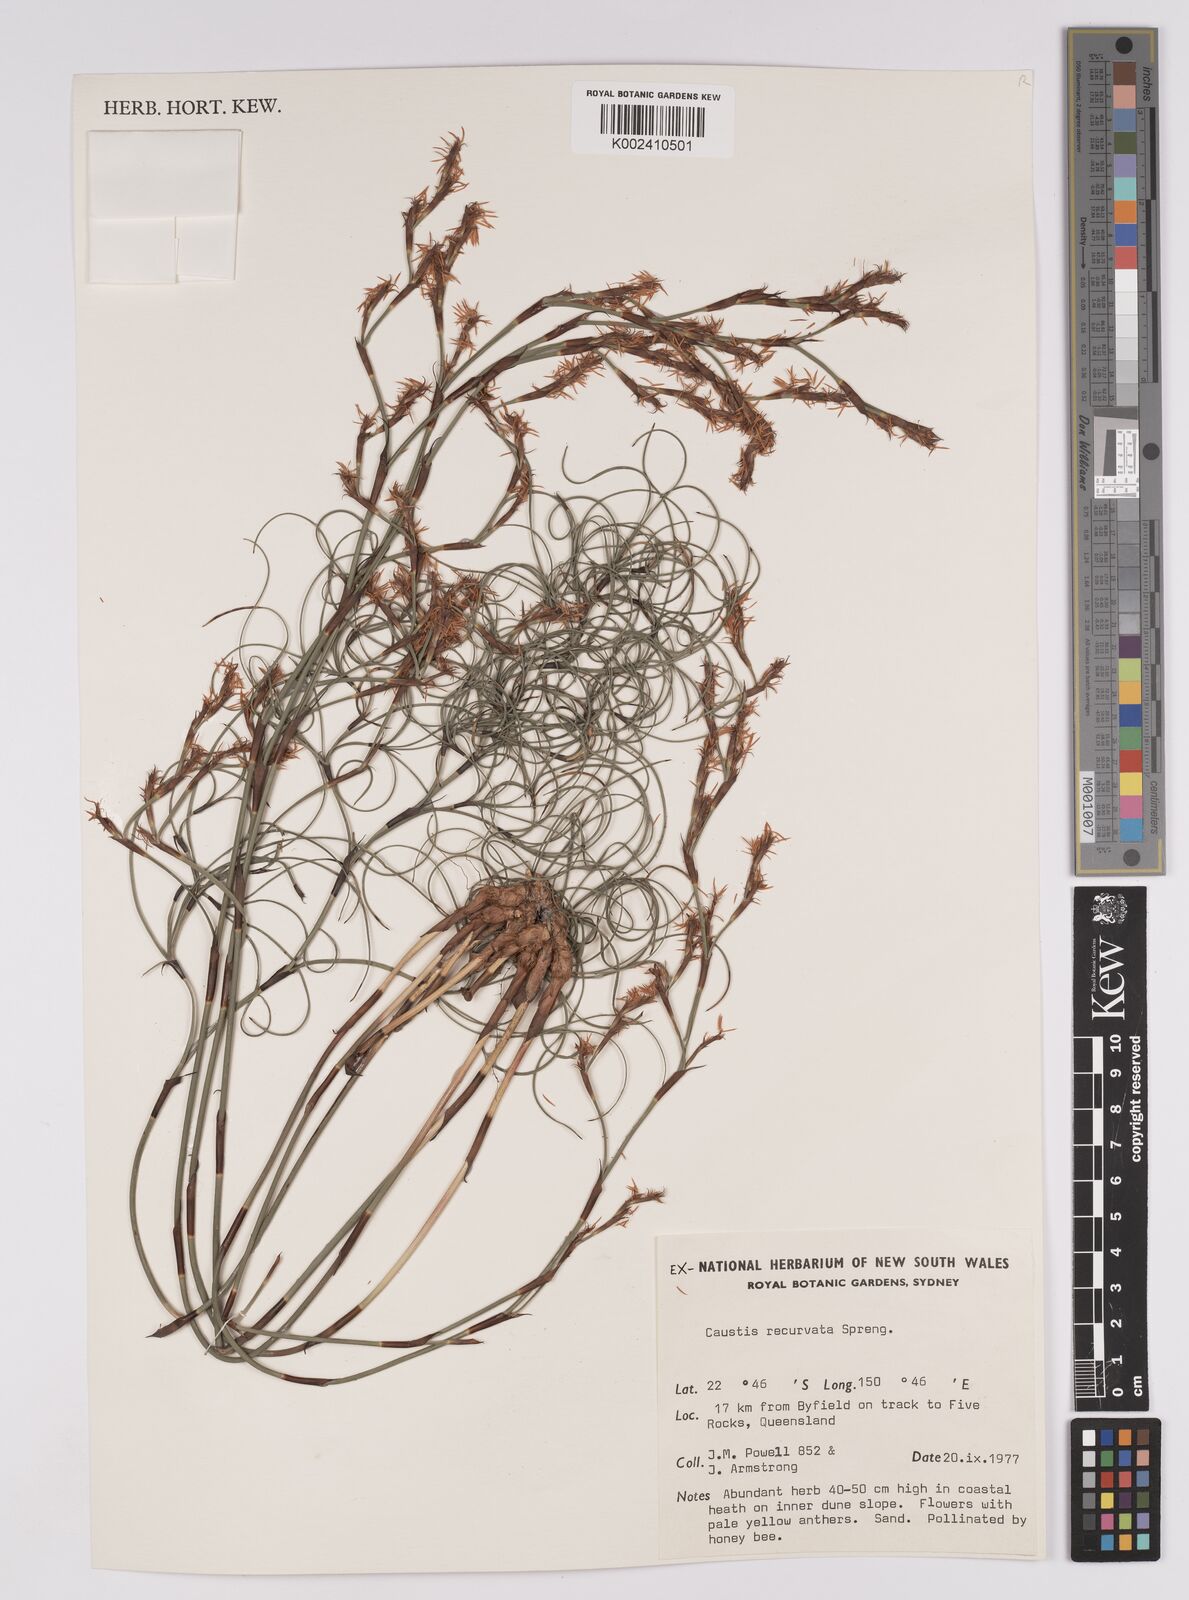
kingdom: Plantae
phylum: Tracheophyta
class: Liliopsida
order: Poales
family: Cyperaceae
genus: Caustis
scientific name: Caustis recurvata
